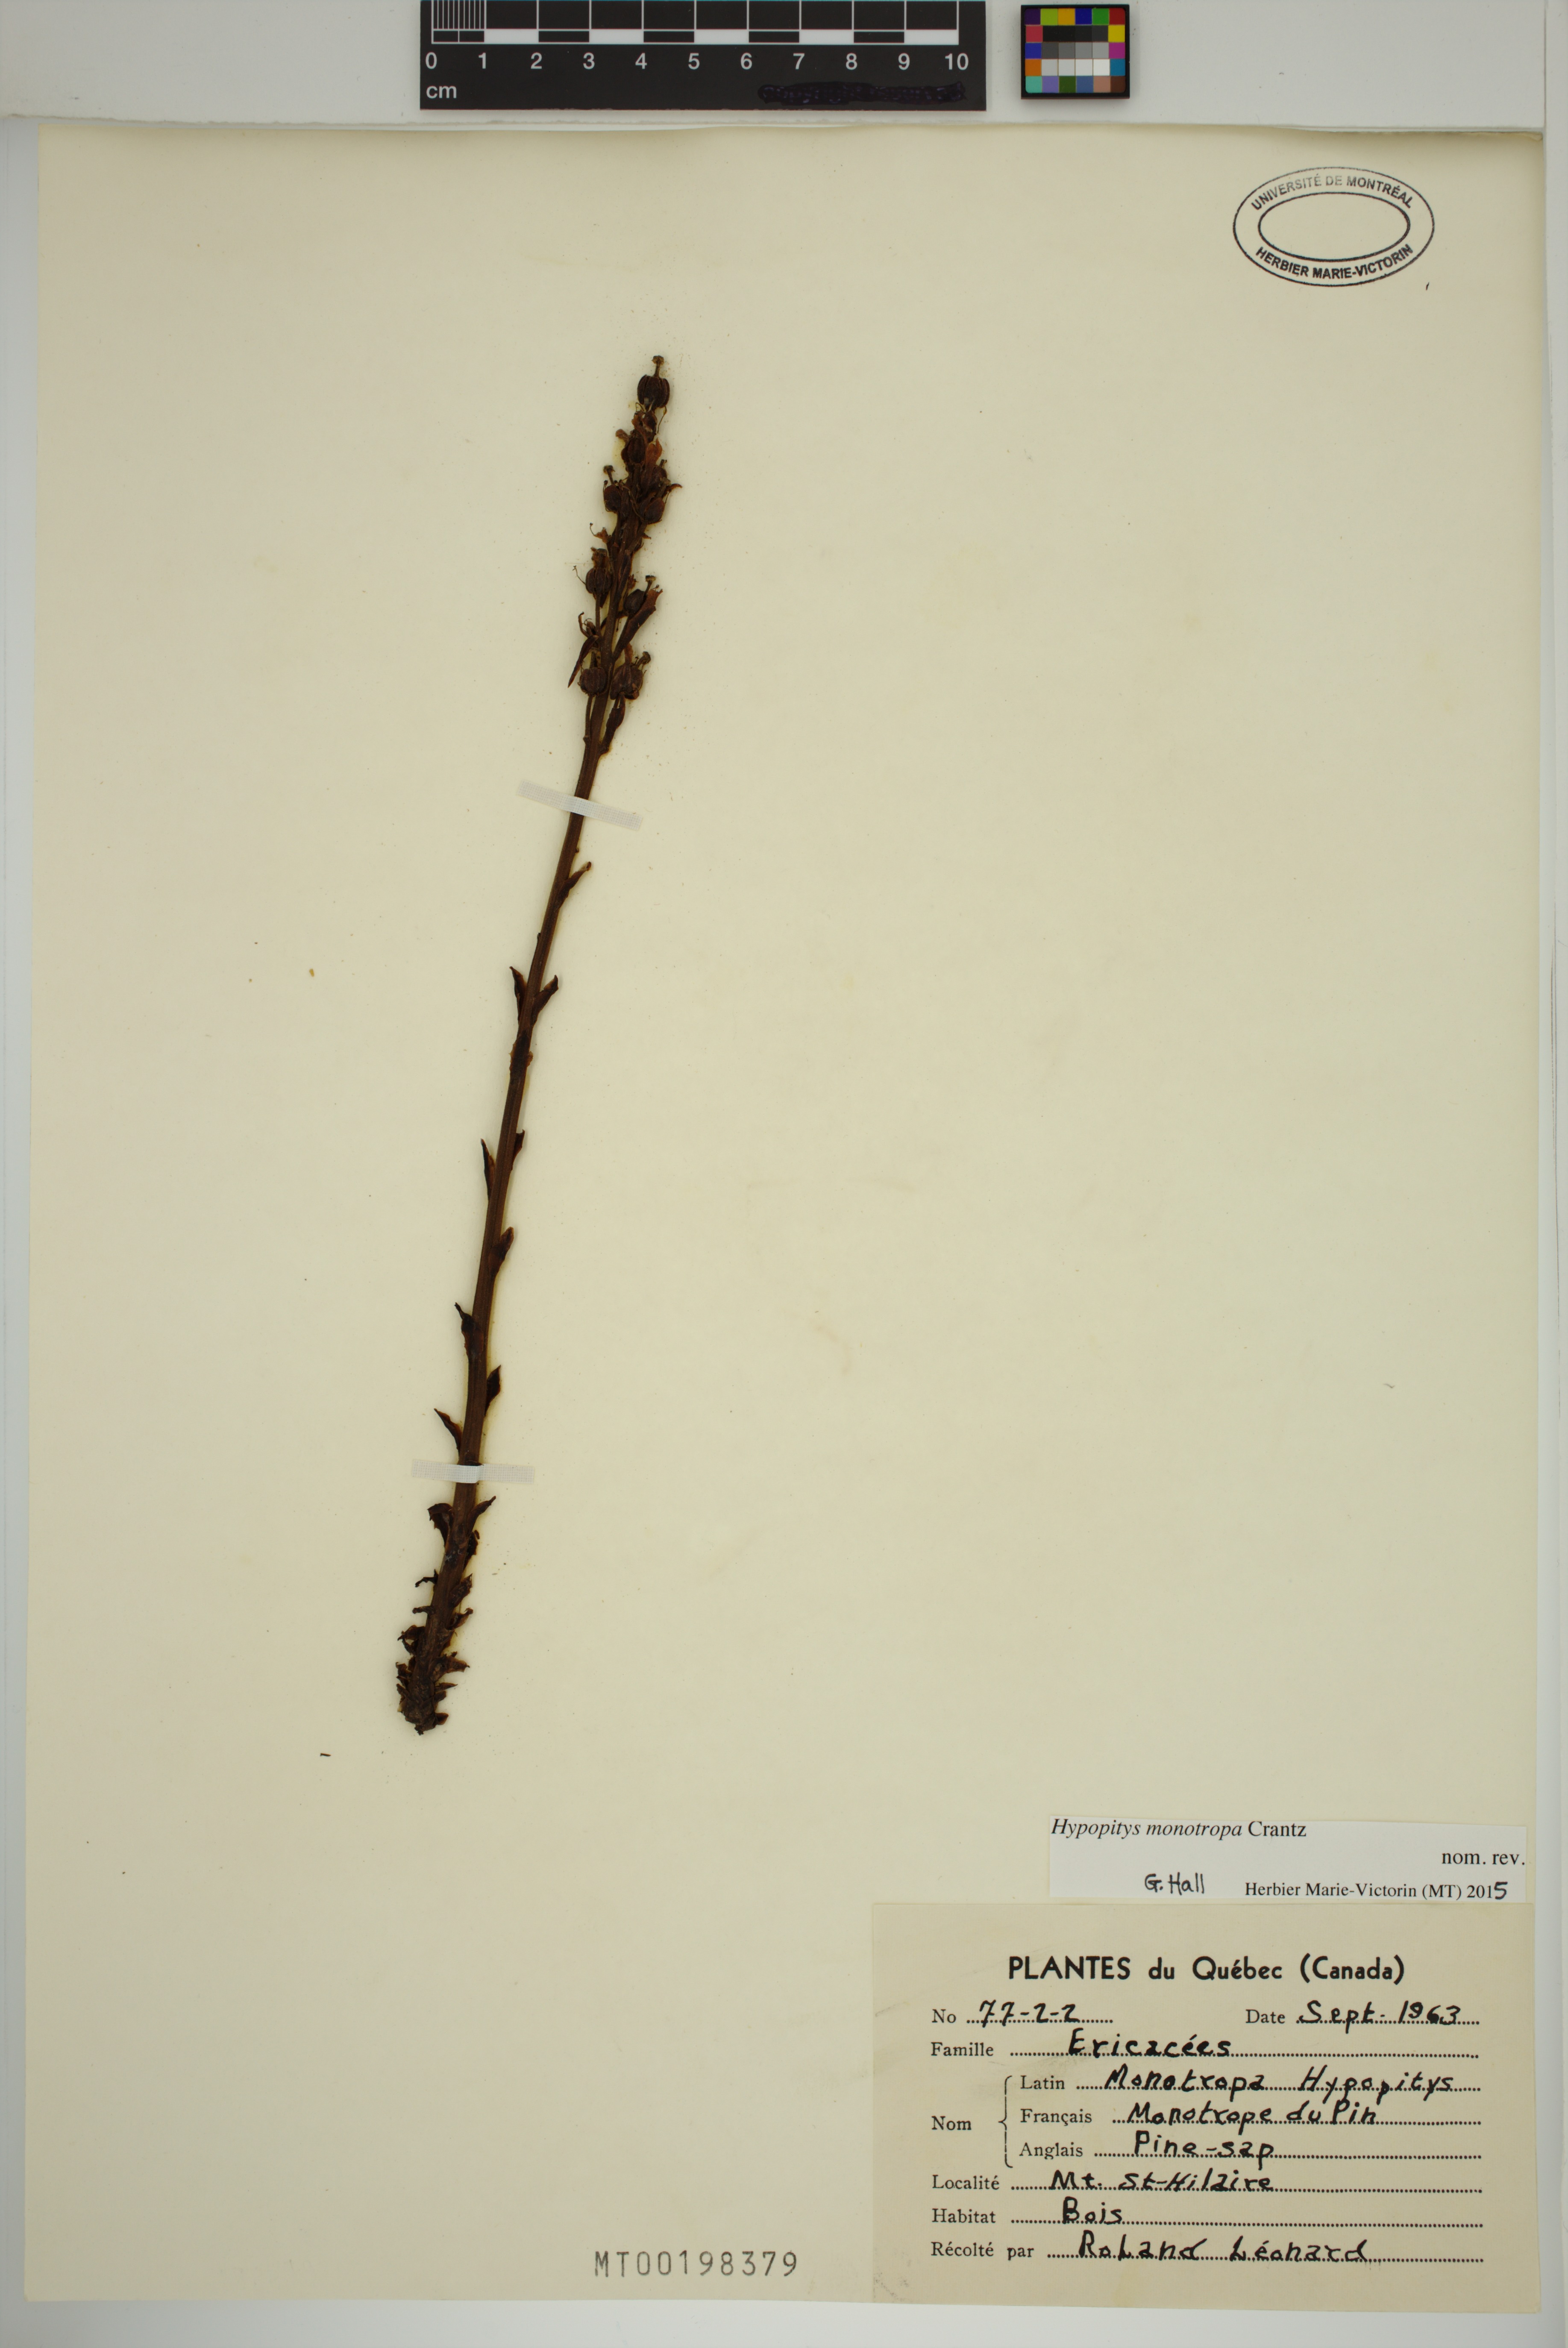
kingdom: Plantae
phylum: Tracheophyta
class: Magnoliopsida
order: Ericales
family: Ericaceae
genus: Hypopitys
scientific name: Hypopitys monotropa
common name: Yellow bird's-nest
